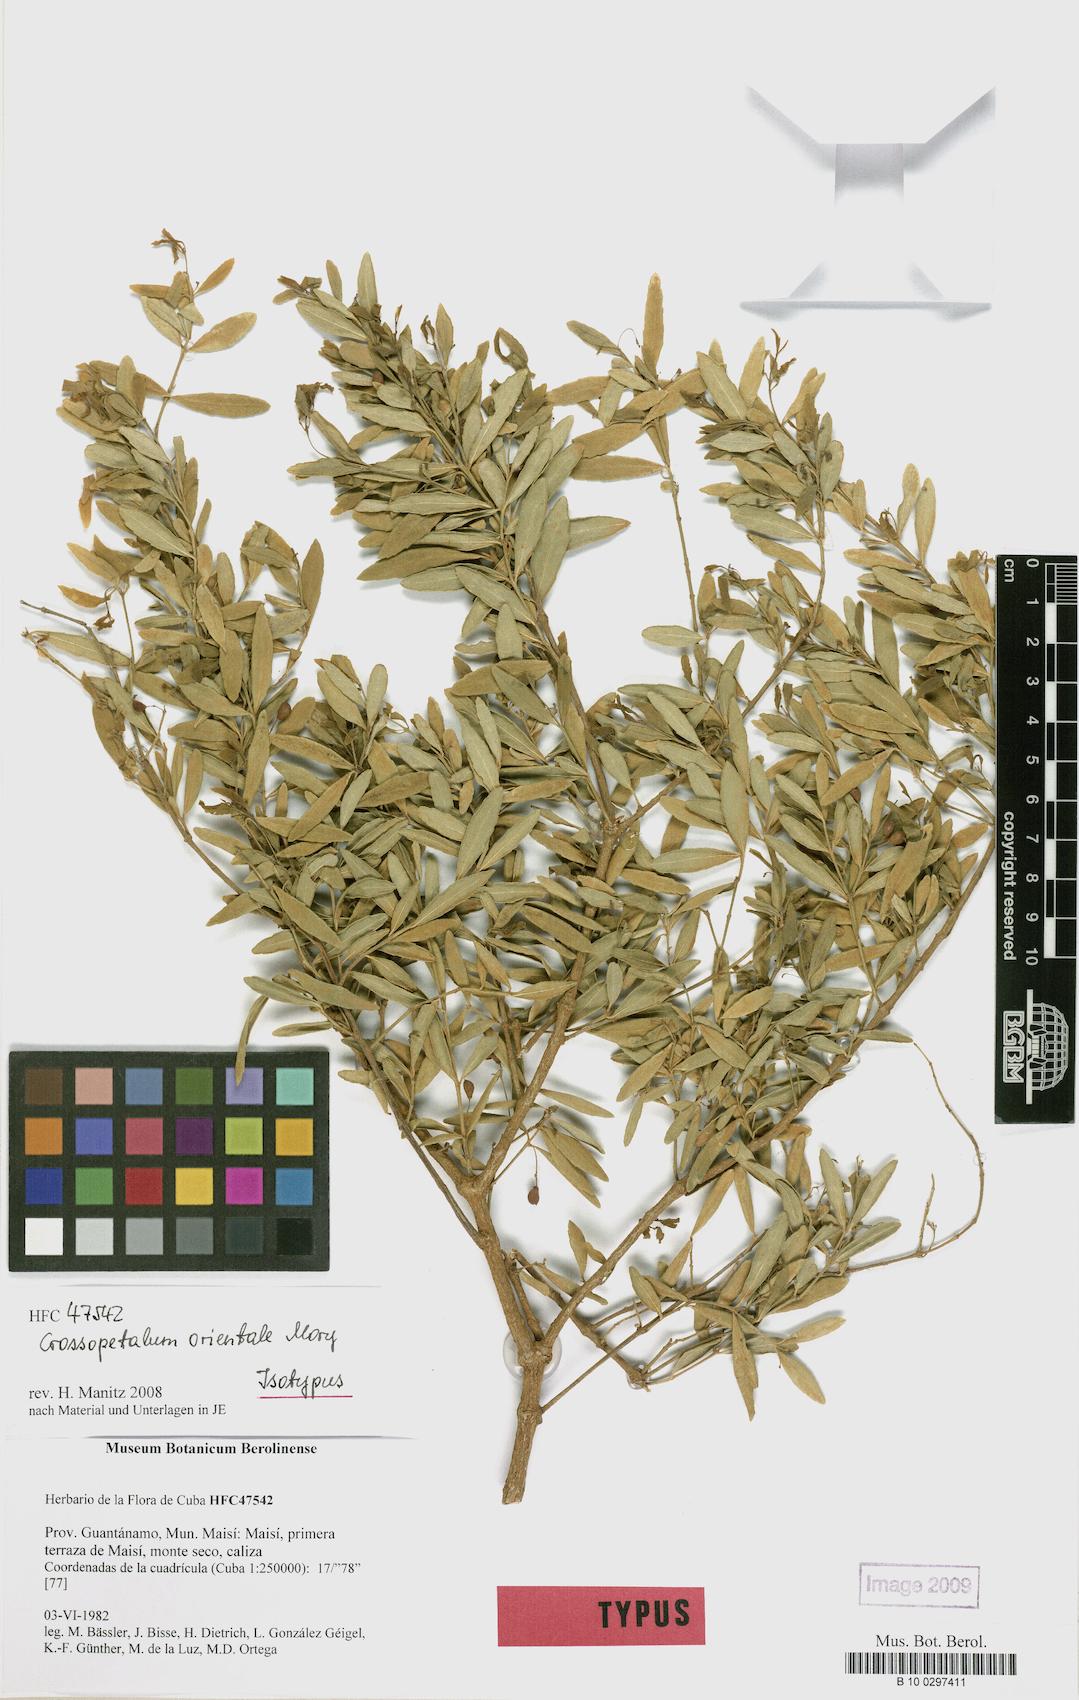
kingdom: Plantae
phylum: Tracheophyta
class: Magnoliopsida
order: Celastrales
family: Celastraceae
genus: Crossopetalum
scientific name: Crossopetalum orientale
